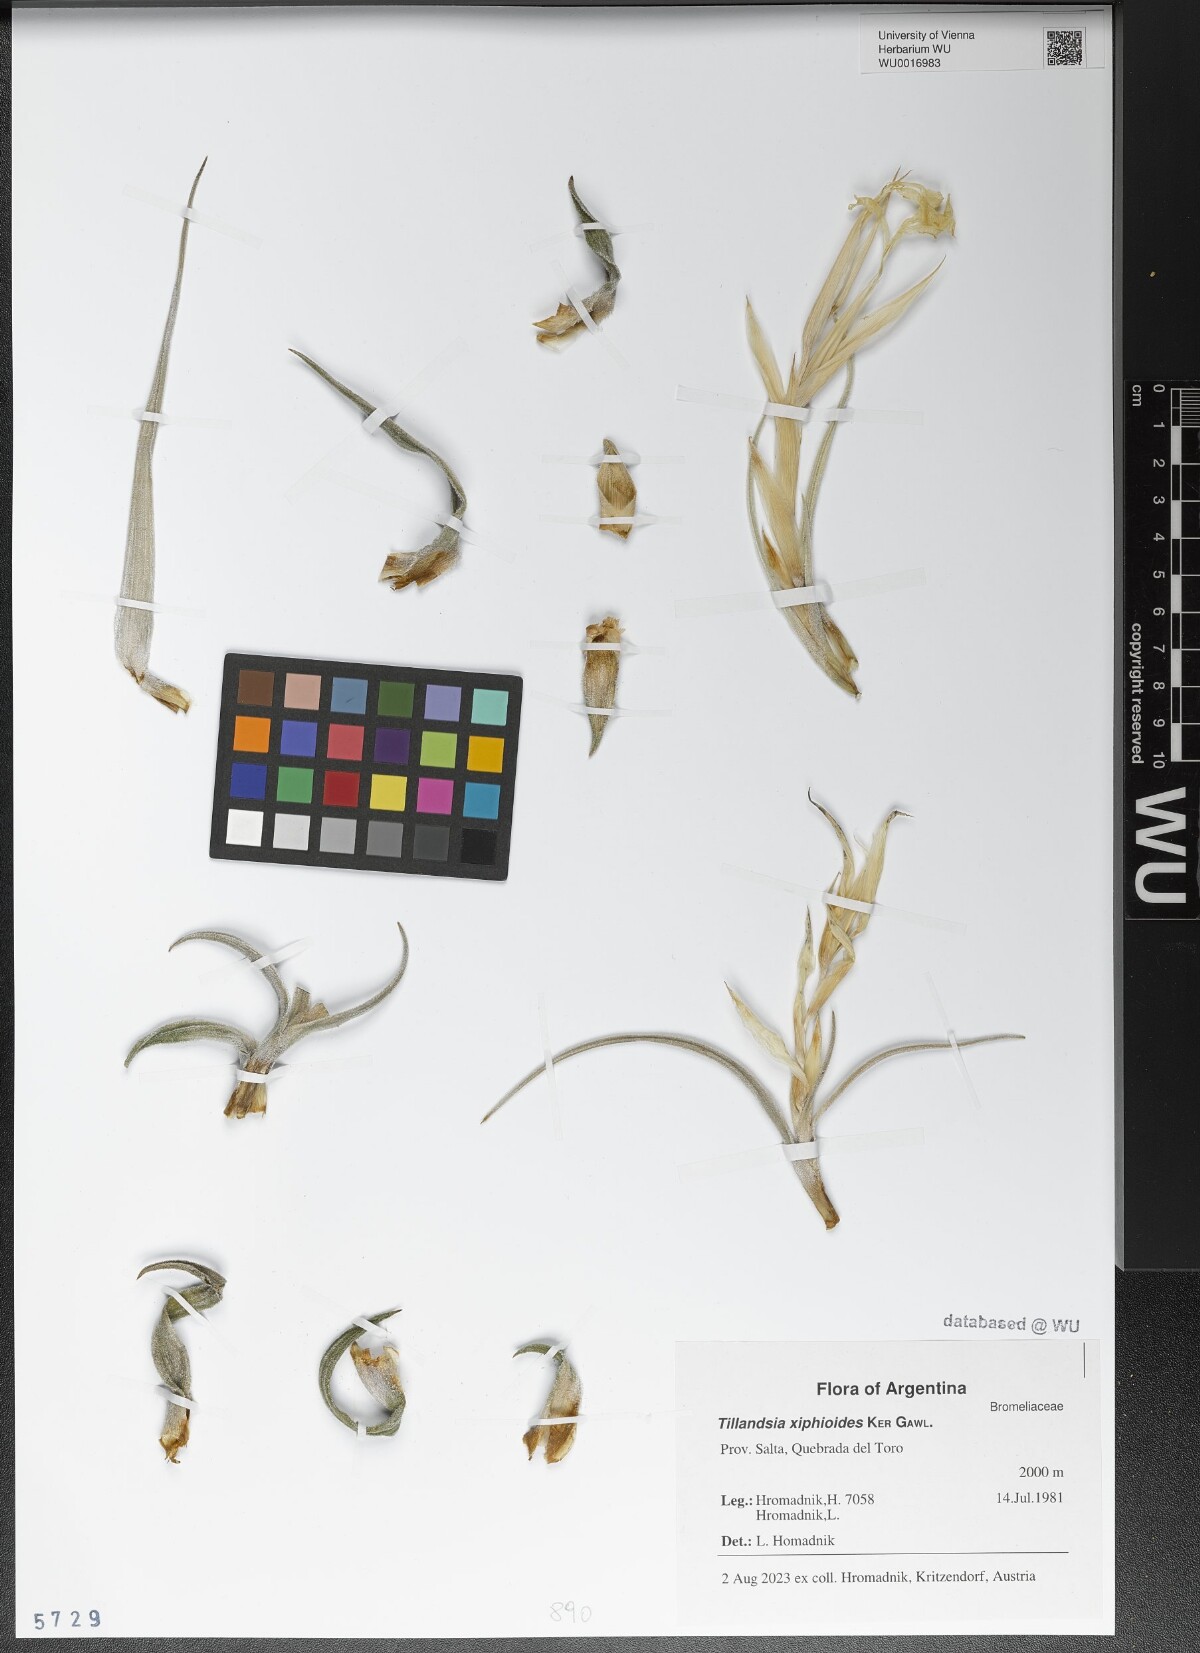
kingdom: Plantae
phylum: Tracheophyta
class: Liliopsida
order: Poales
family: Bromeliaceae
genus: Tillandsia
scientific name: Tillandsia xiphioides
